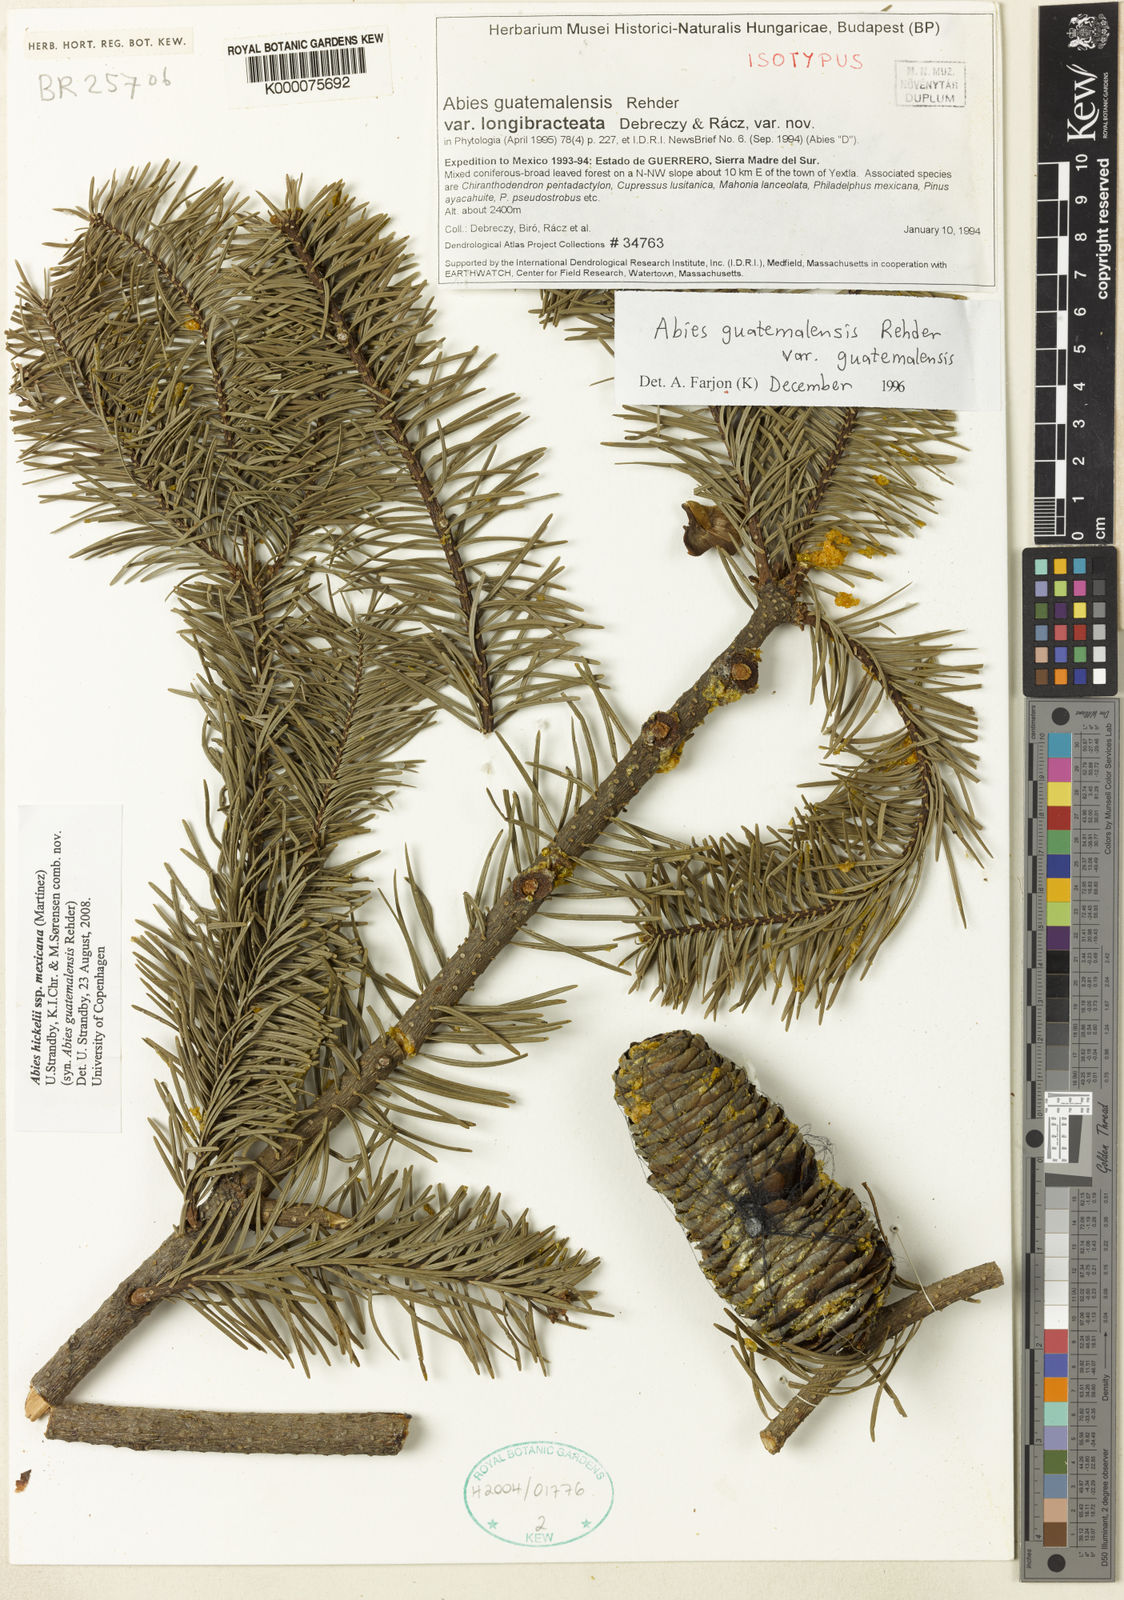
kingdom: Plantae
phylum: Tracheophyta
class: Pinopsida
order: Pinales
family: Pinaceae
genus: Abies
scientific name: Abies guatemalensis
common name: Guatemalan fir
